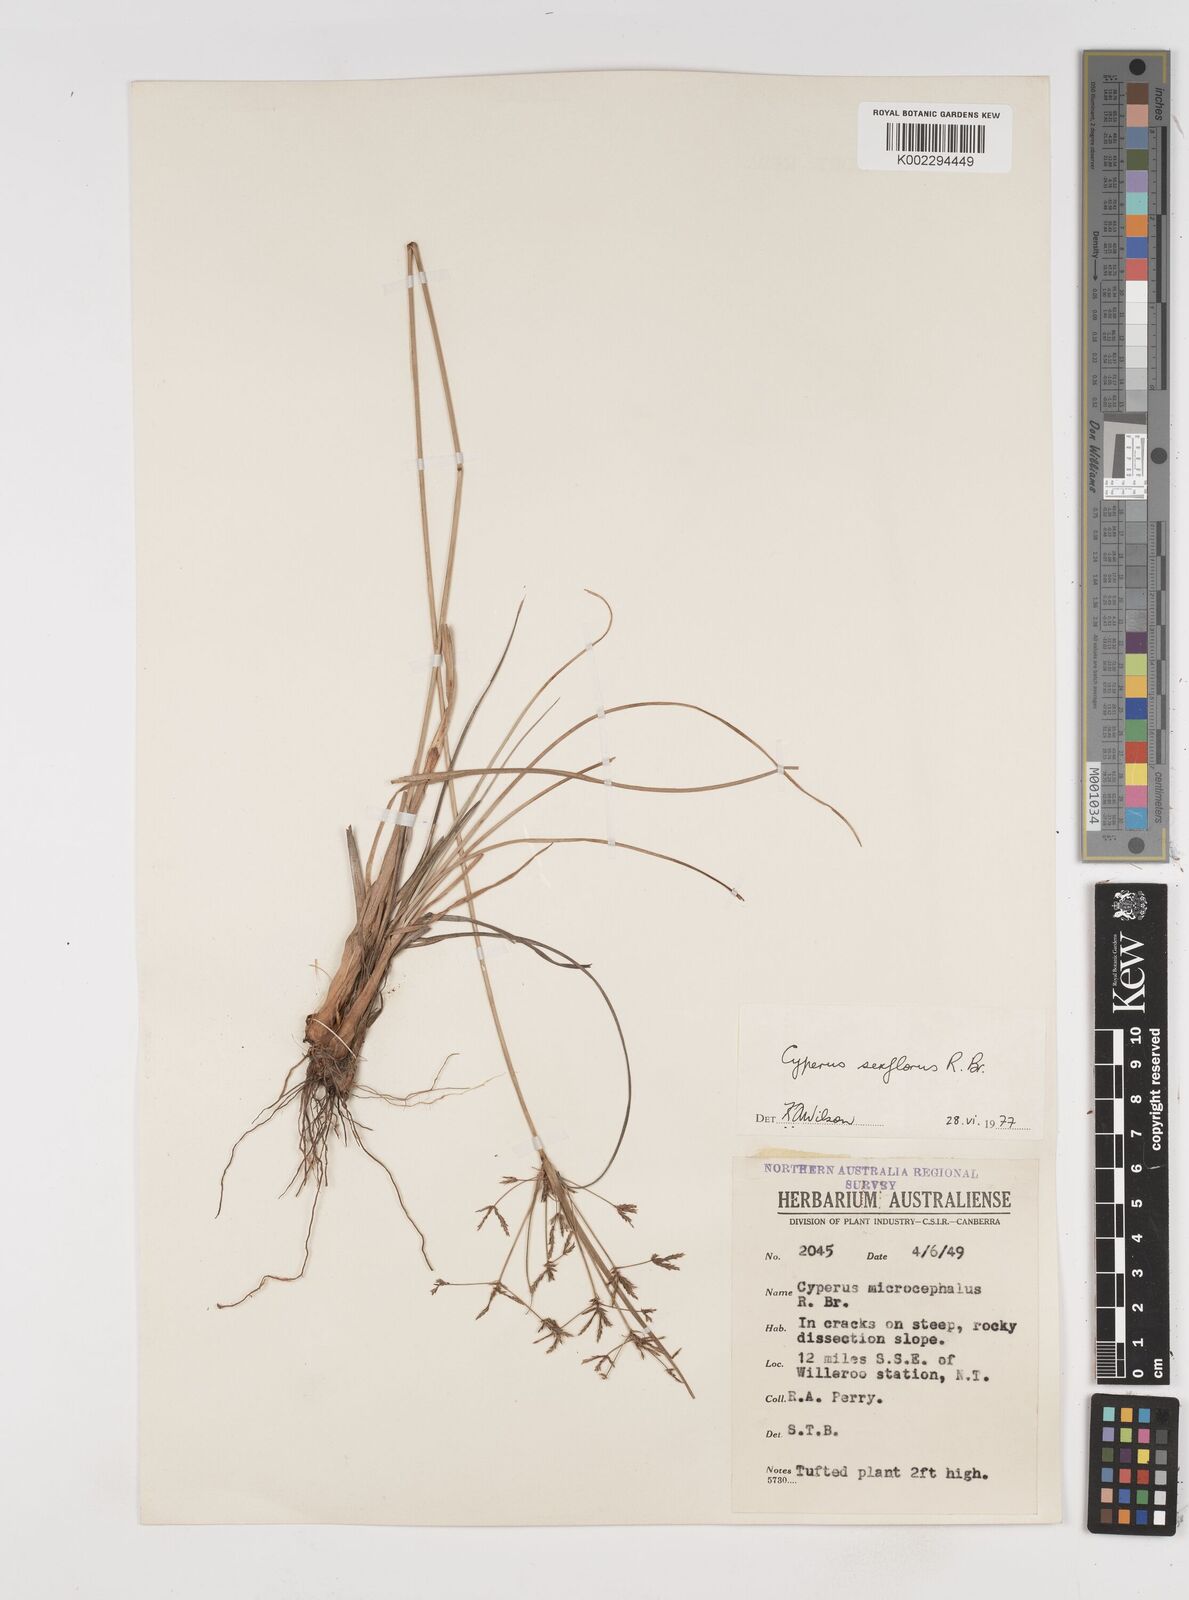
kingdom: Plantae
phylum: Tracheophyta
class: Liliopsida
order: Poales
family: Cyperaceae
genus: Cyperus
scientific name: Cyperus sexflorus
